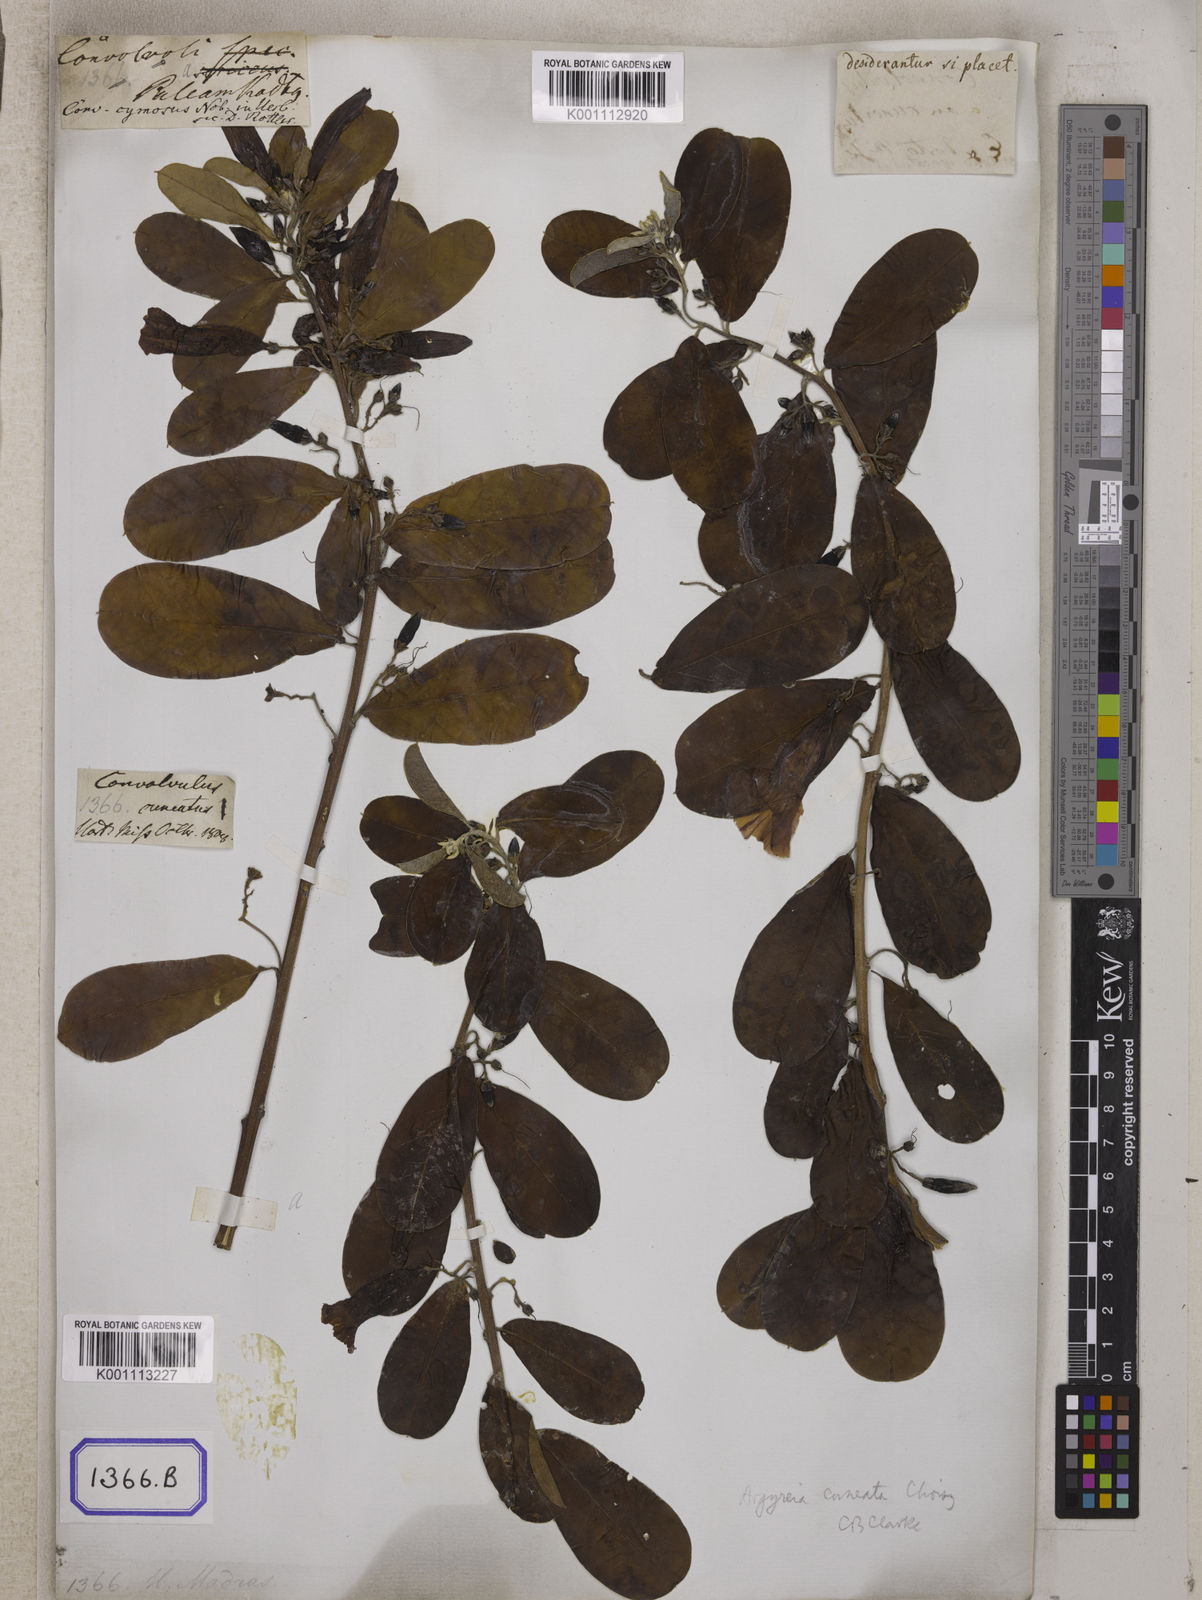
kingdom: Plantae
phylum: Tracheophyta
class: Magnoliopsida
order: Solanales
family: Convolvulaceae
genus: Convolvulus
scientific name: Convolvulus
